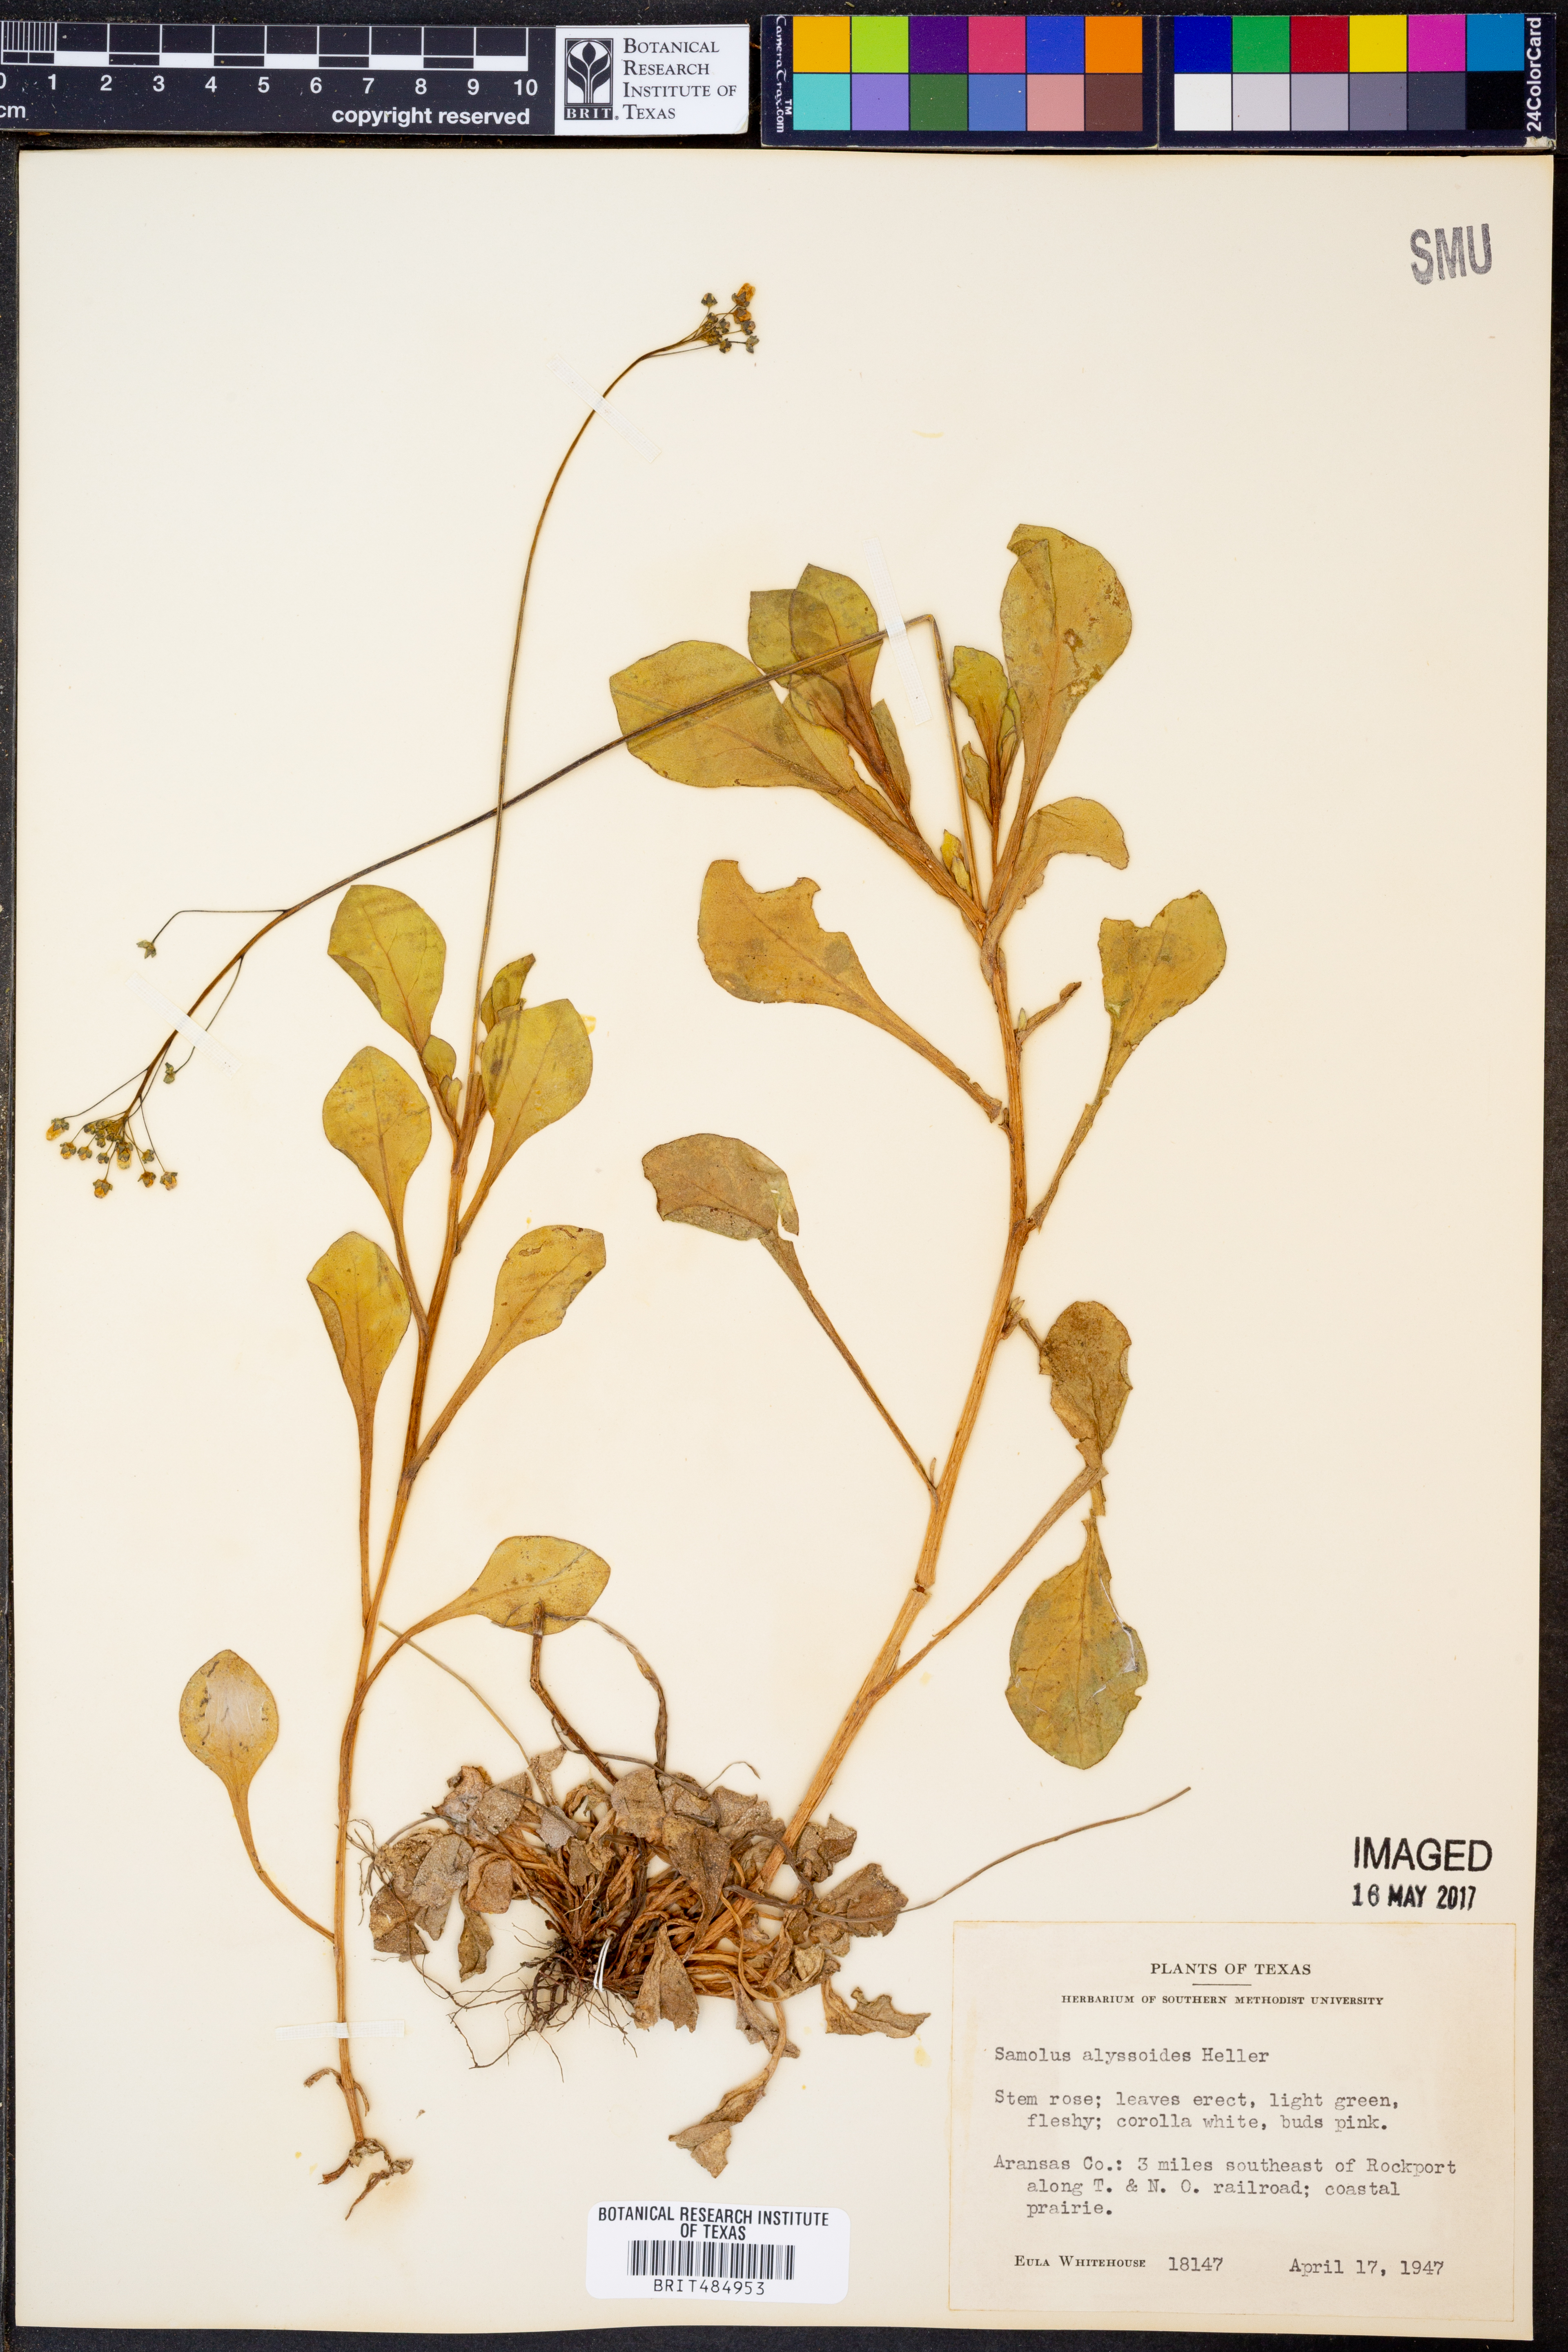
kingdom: Plantae
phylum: Tracheophyta
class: Magnoliopsida
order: Ericales
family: Primulaceae
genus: Samolus
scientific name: Samolus ebracteatus
